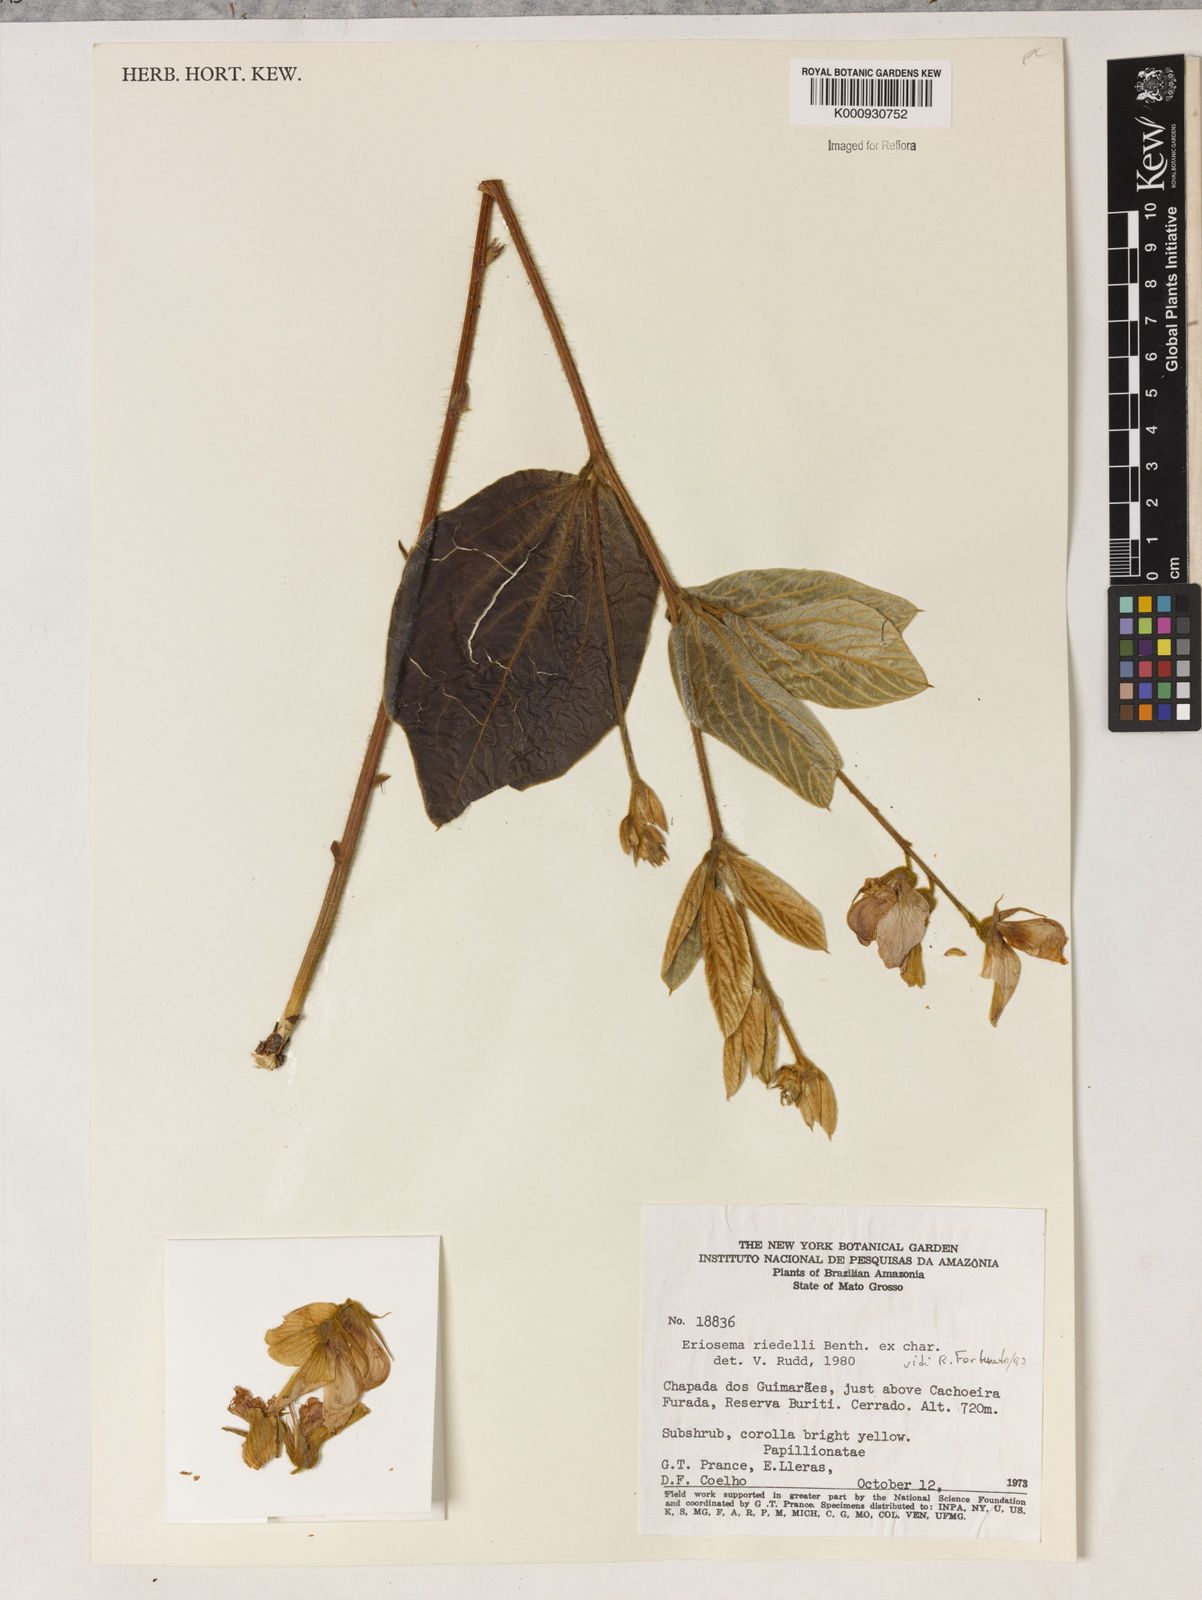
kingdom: Plantae
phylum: Tracheophyta
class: Magnoliopsida
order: Fabales
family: Fabaceae
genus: Eriosema
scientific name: Eriosema riedelii
